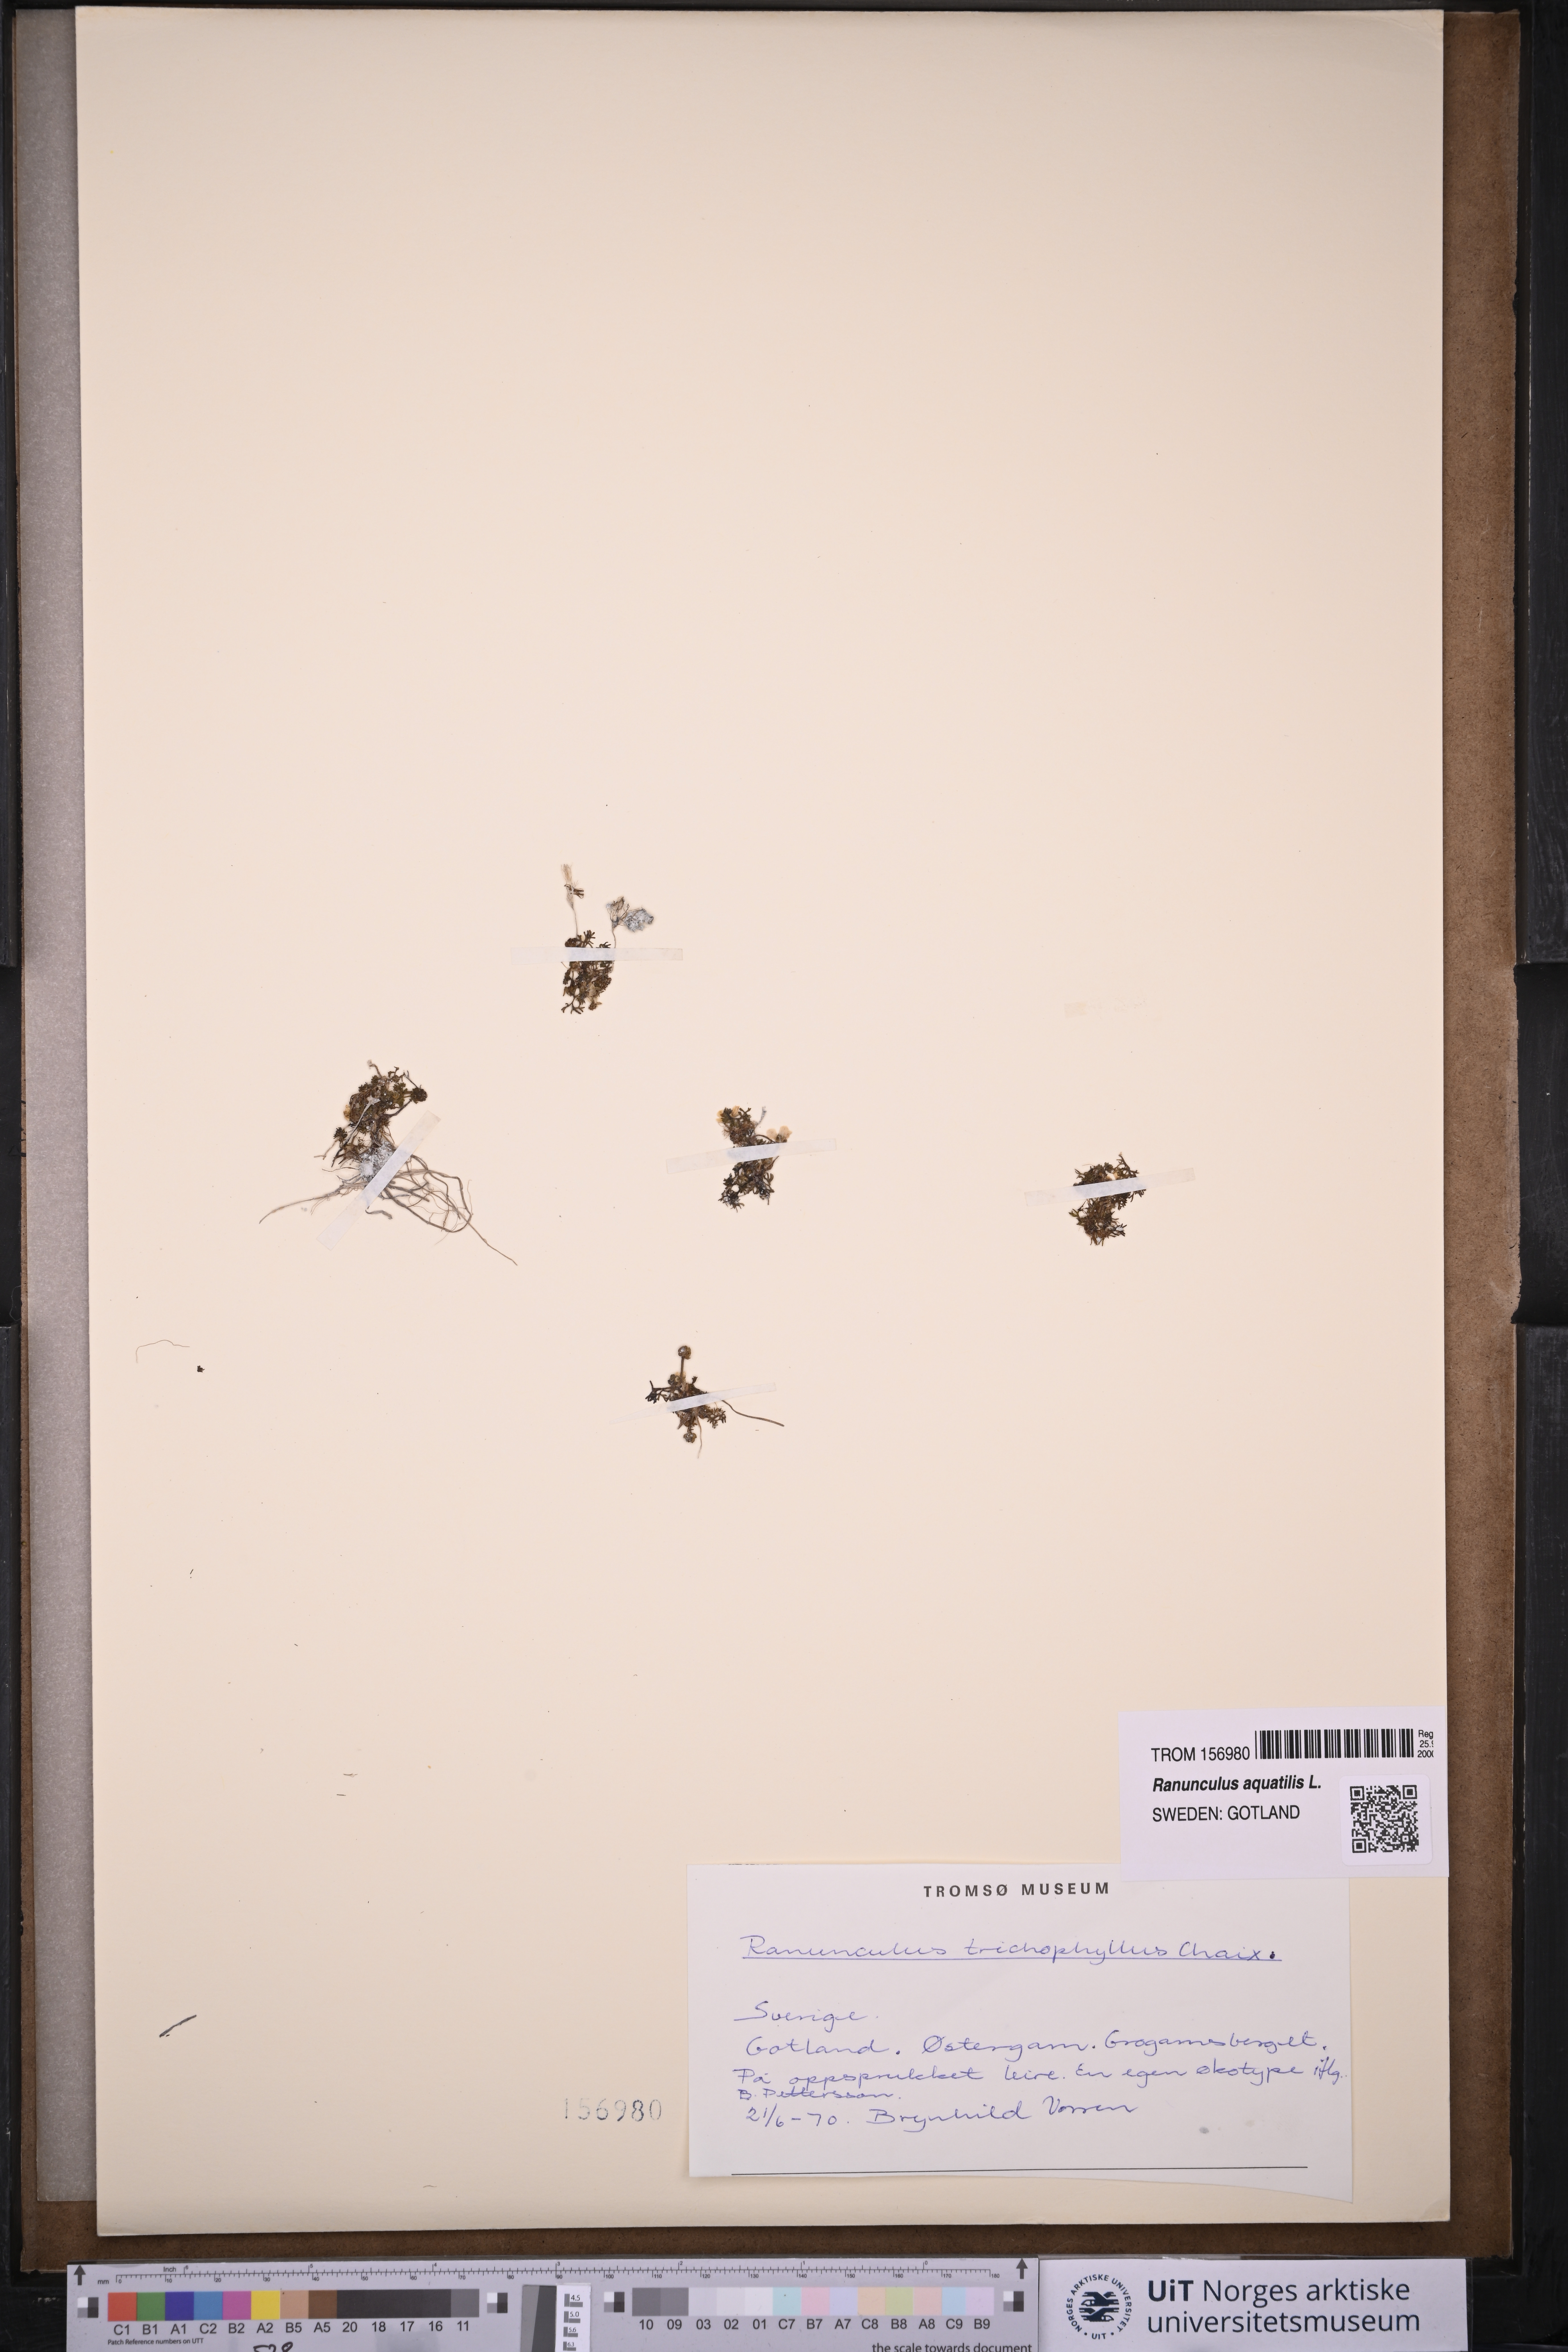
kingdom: Plantae
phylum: Tracheophyta
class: Magnoliopsida
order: Ranunculales
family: Ranunculaceae
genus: Ranunculus
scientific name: Ranunculus trichophyllus
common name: Thread-leaved water-crowfoot
